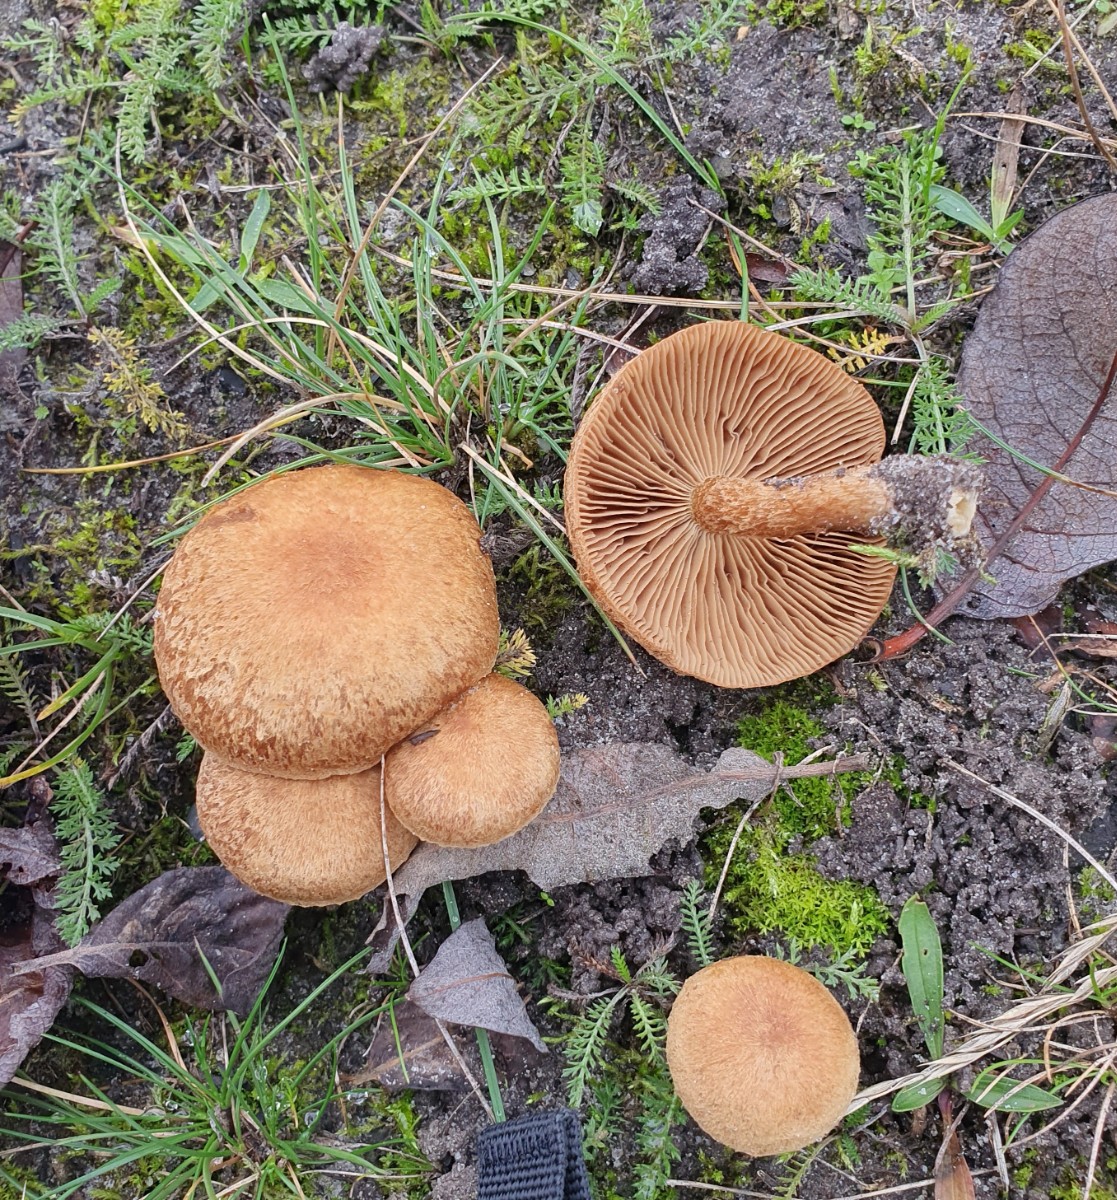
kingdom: Fungi
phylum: Basidiomycota
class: Agaricomycetes
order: Agaricales
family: Inocybaceae
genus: Inocybe
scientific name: Inocybe dulcamara
